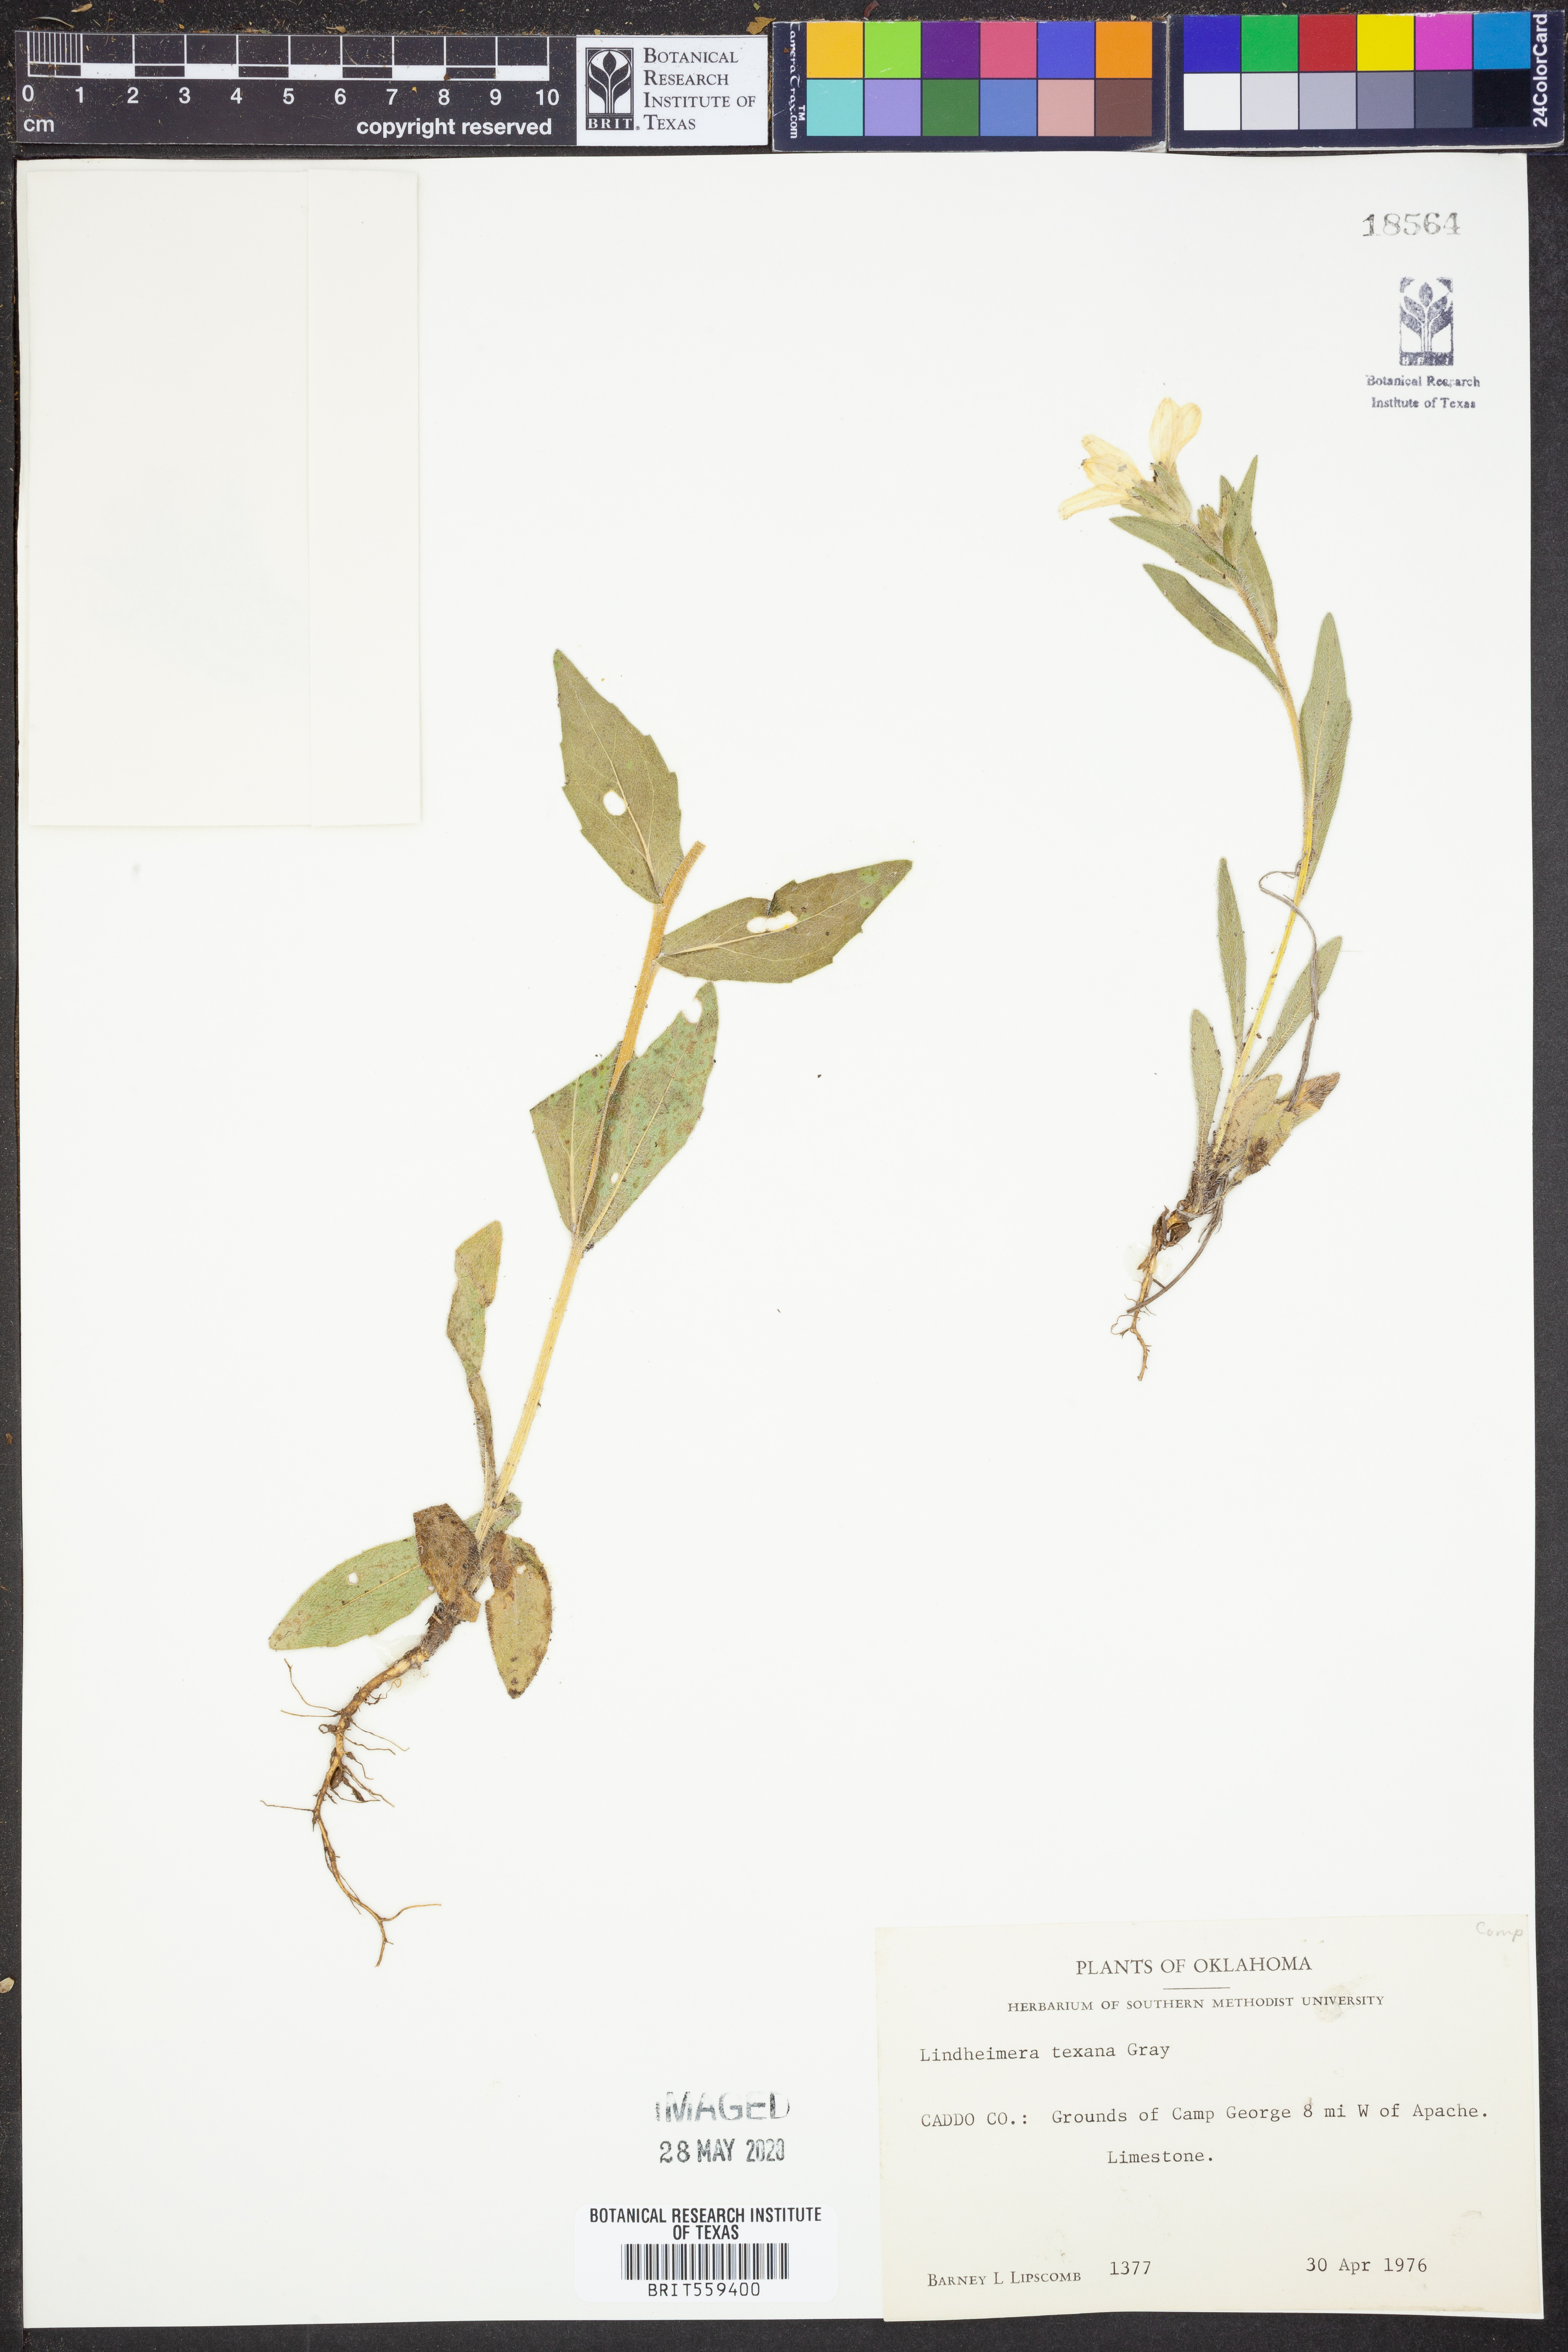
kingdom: Plantae
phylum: Tracheophyta
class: Magnoliopsida
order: Asterales
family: Asteraceae
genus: Lindheimera
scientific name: Lindheimera texana
